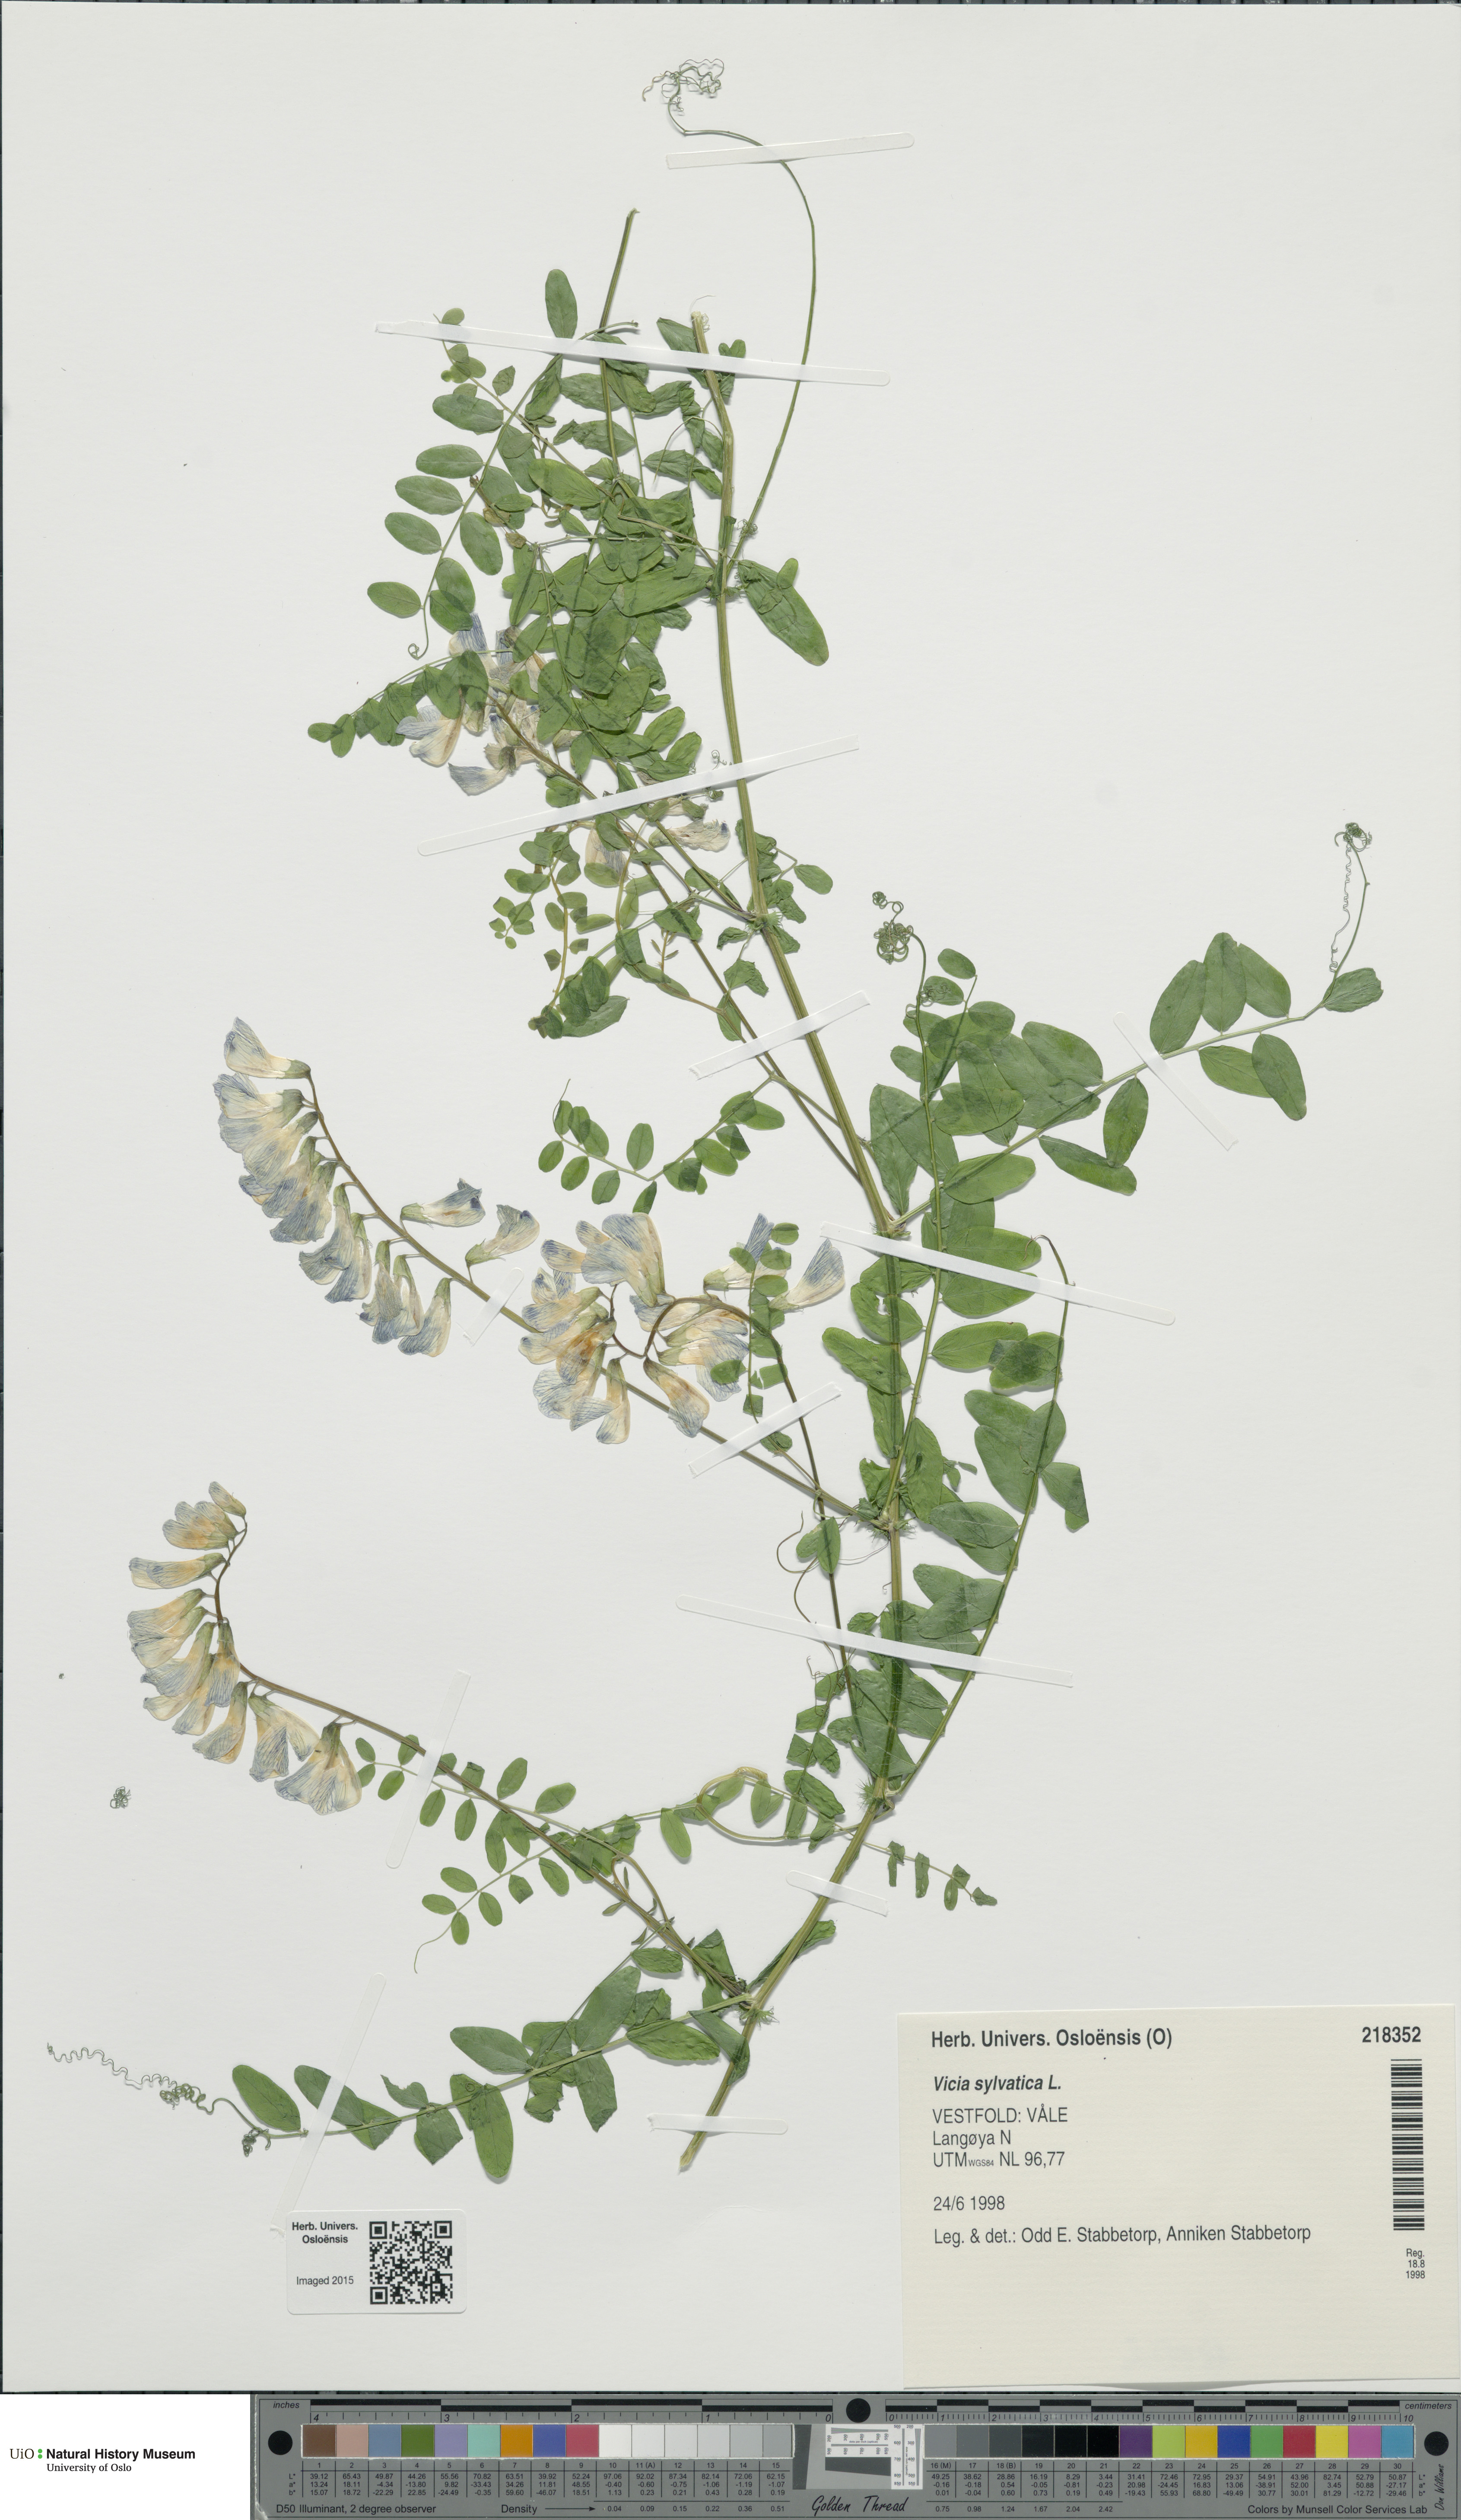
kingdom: Plantae
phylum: Tracheophyta
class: Magnoliopsida
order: Fabales
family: Fabaceae
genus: Vicia
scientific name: Vicia sylvatica
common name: Wood vetch
